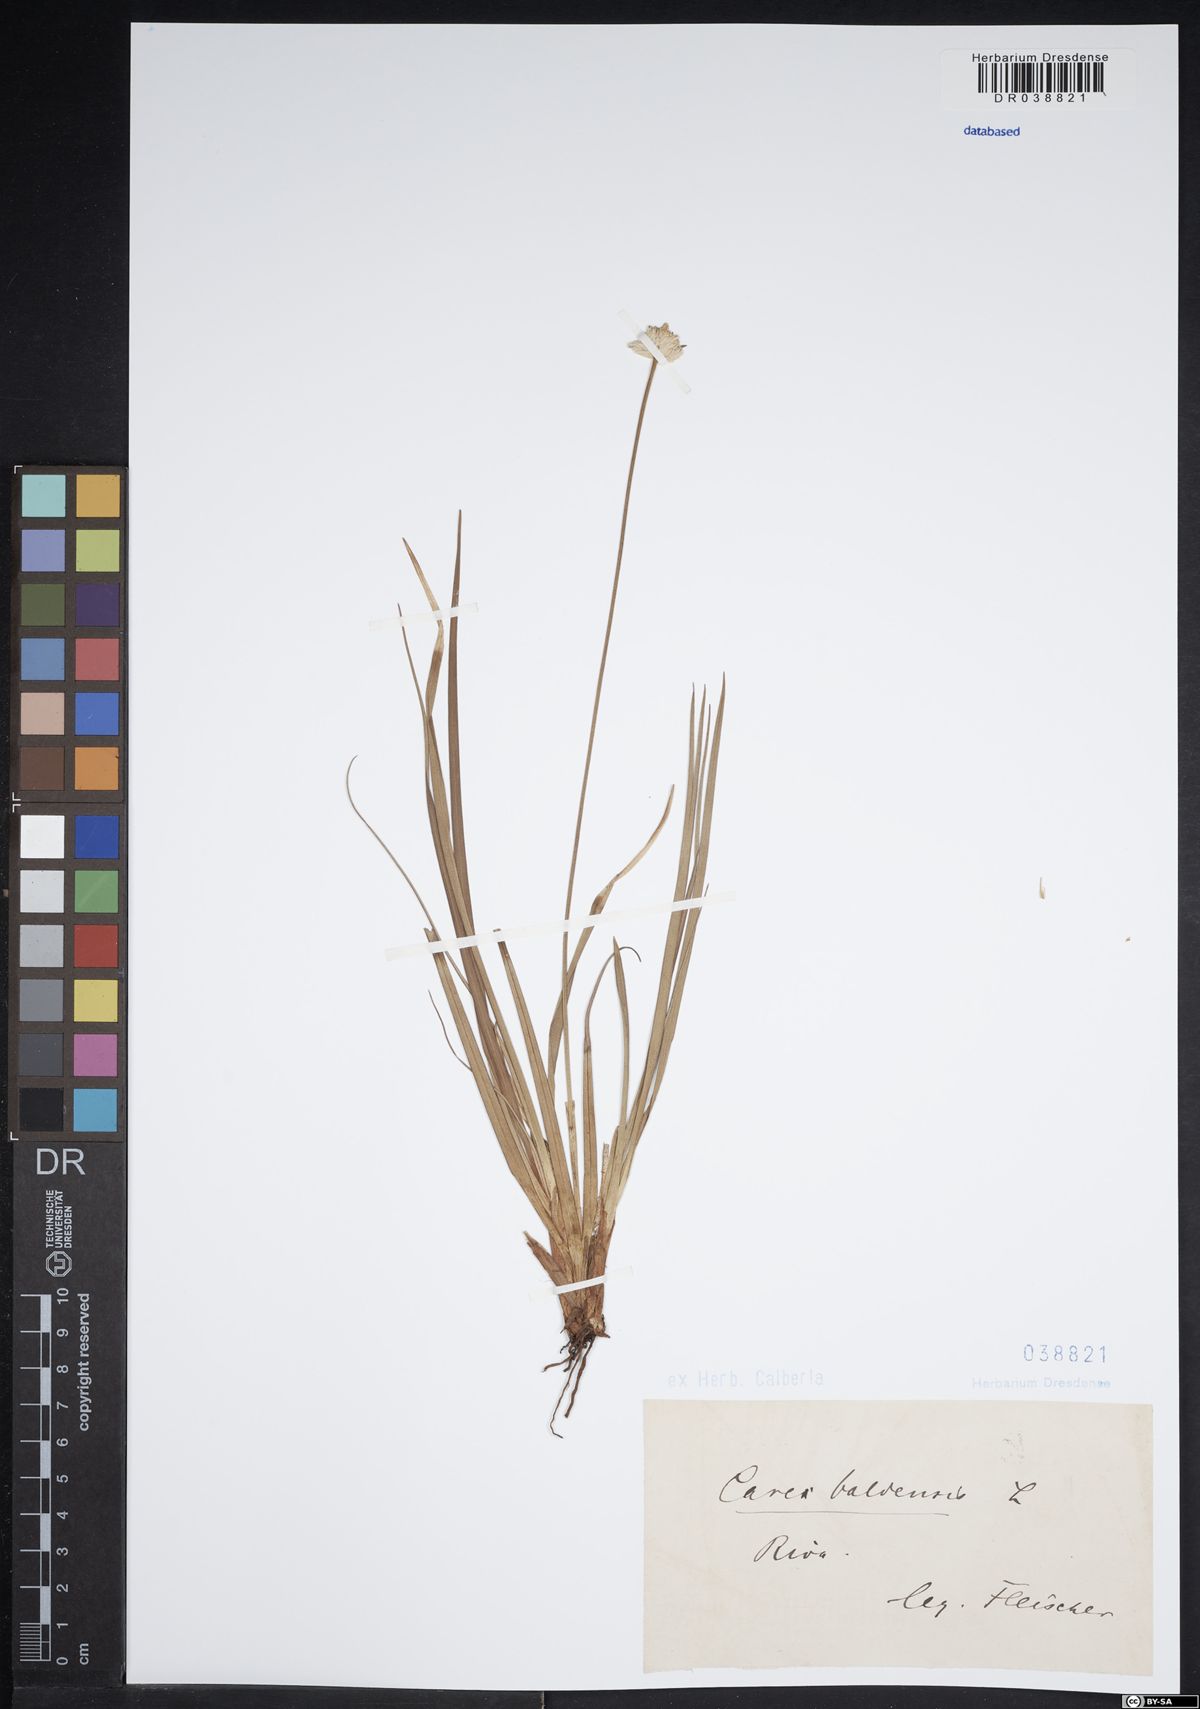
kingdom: Plantae
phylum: Tracheophyta
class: Liliopsida
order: Poales
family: Cyperaceae
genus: Carex
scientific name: Carex baldensis
